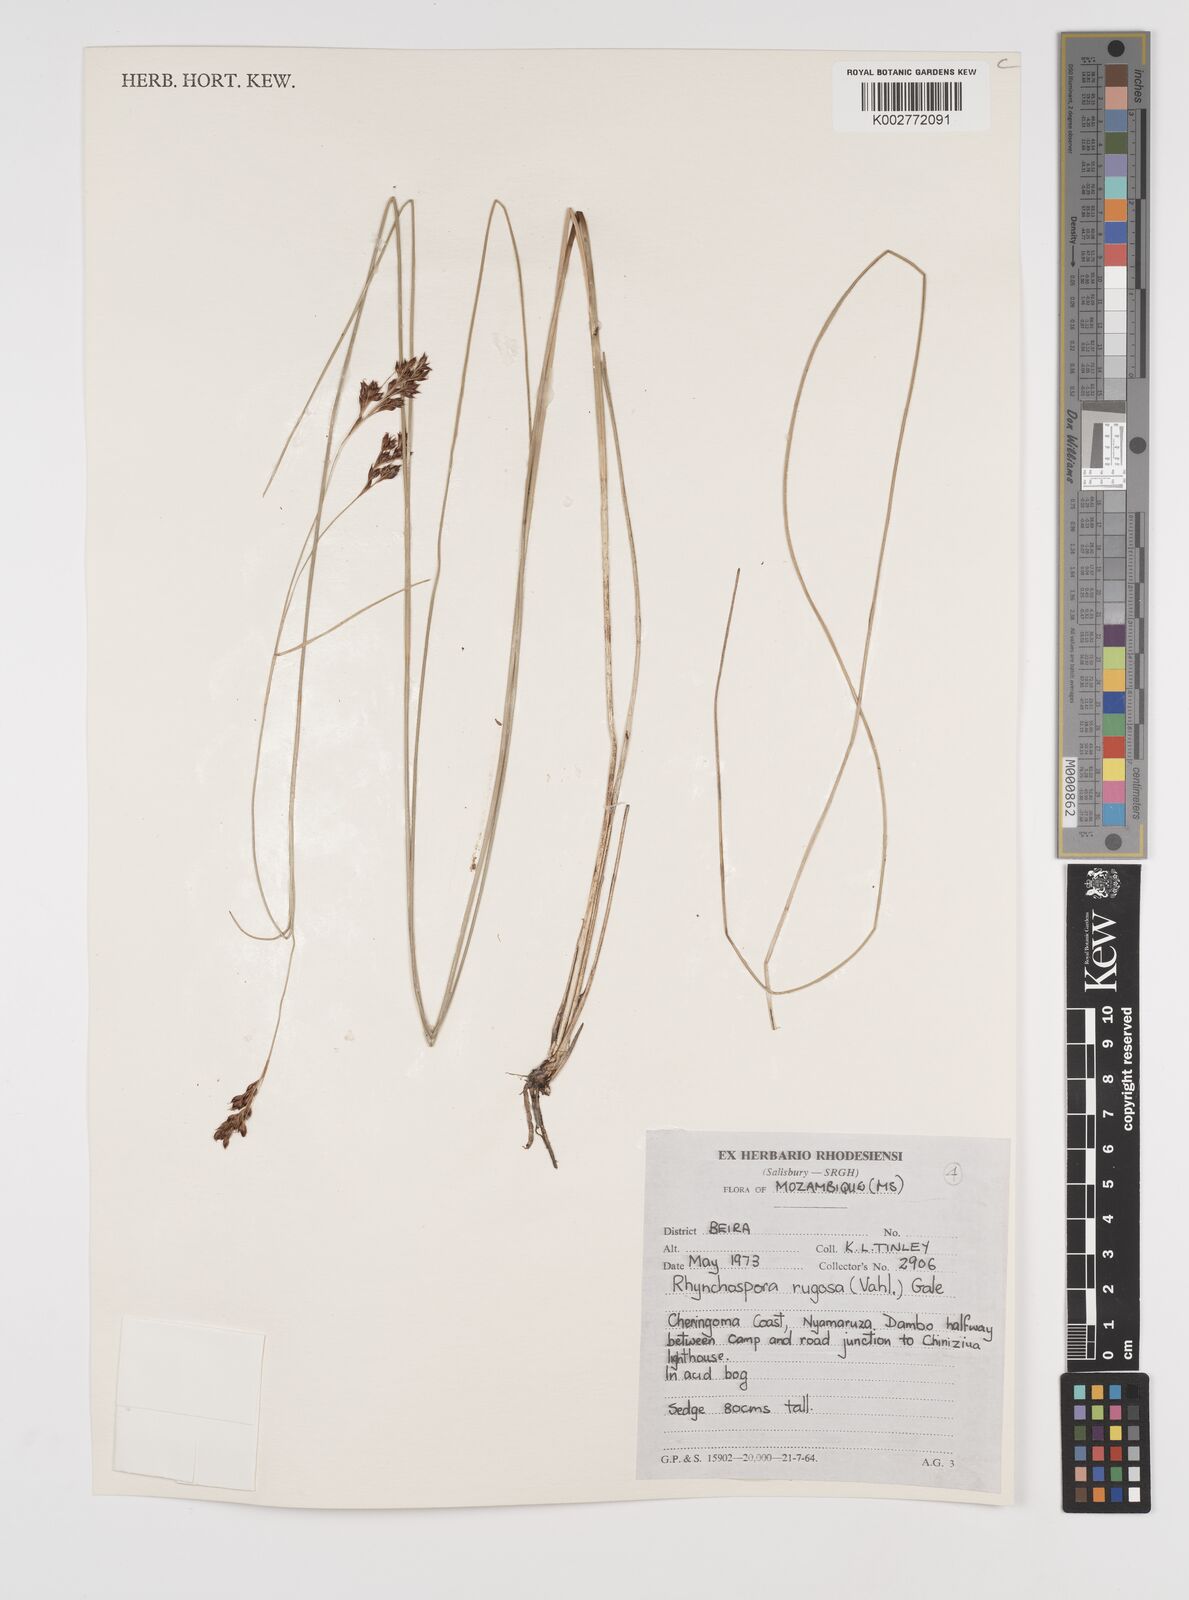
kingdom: Plantae
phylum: Tracheophyta
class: Liliopsida
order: Poales
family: Cyperaceae
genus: Rhynchospora
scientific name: Rhynchospora rugosa
